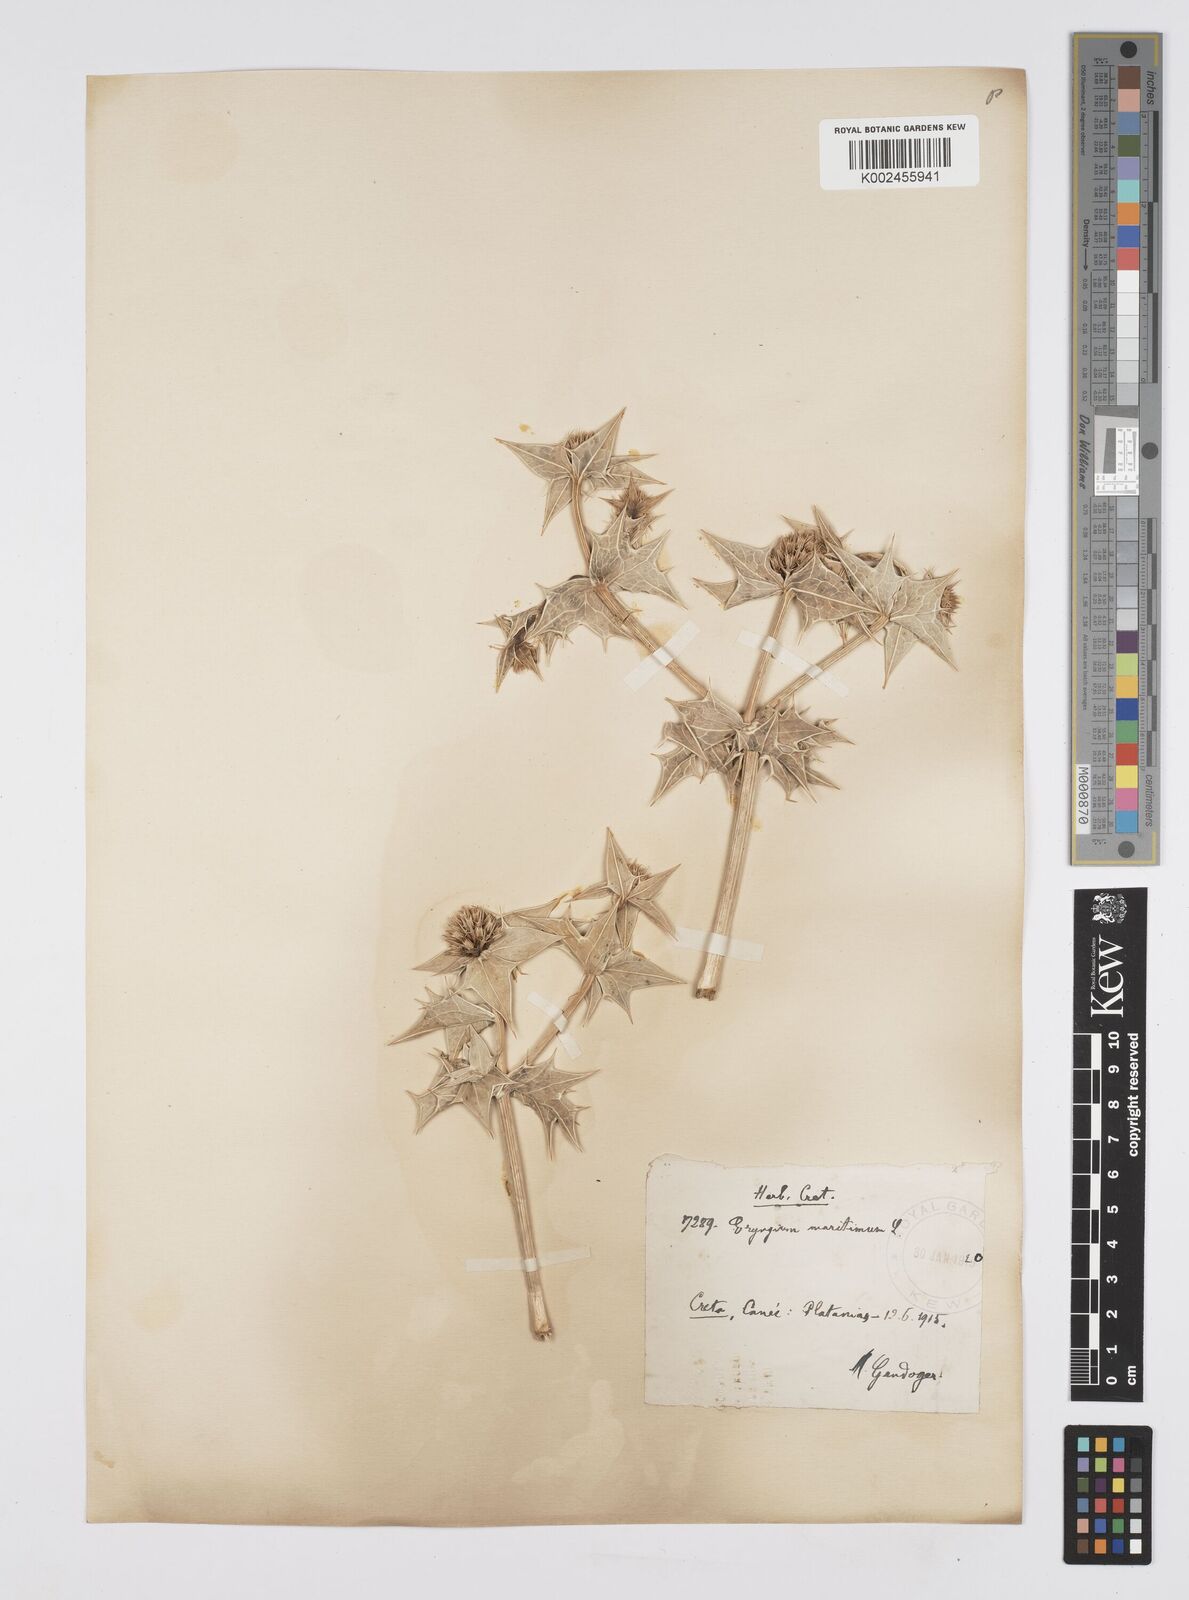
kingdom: Plantae
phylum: Tracheophyta
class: Magnoliopsida
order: Apiales
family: Apiaceae
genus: Eryngium
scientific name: Eryngium maritimum
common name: Sea-holly
